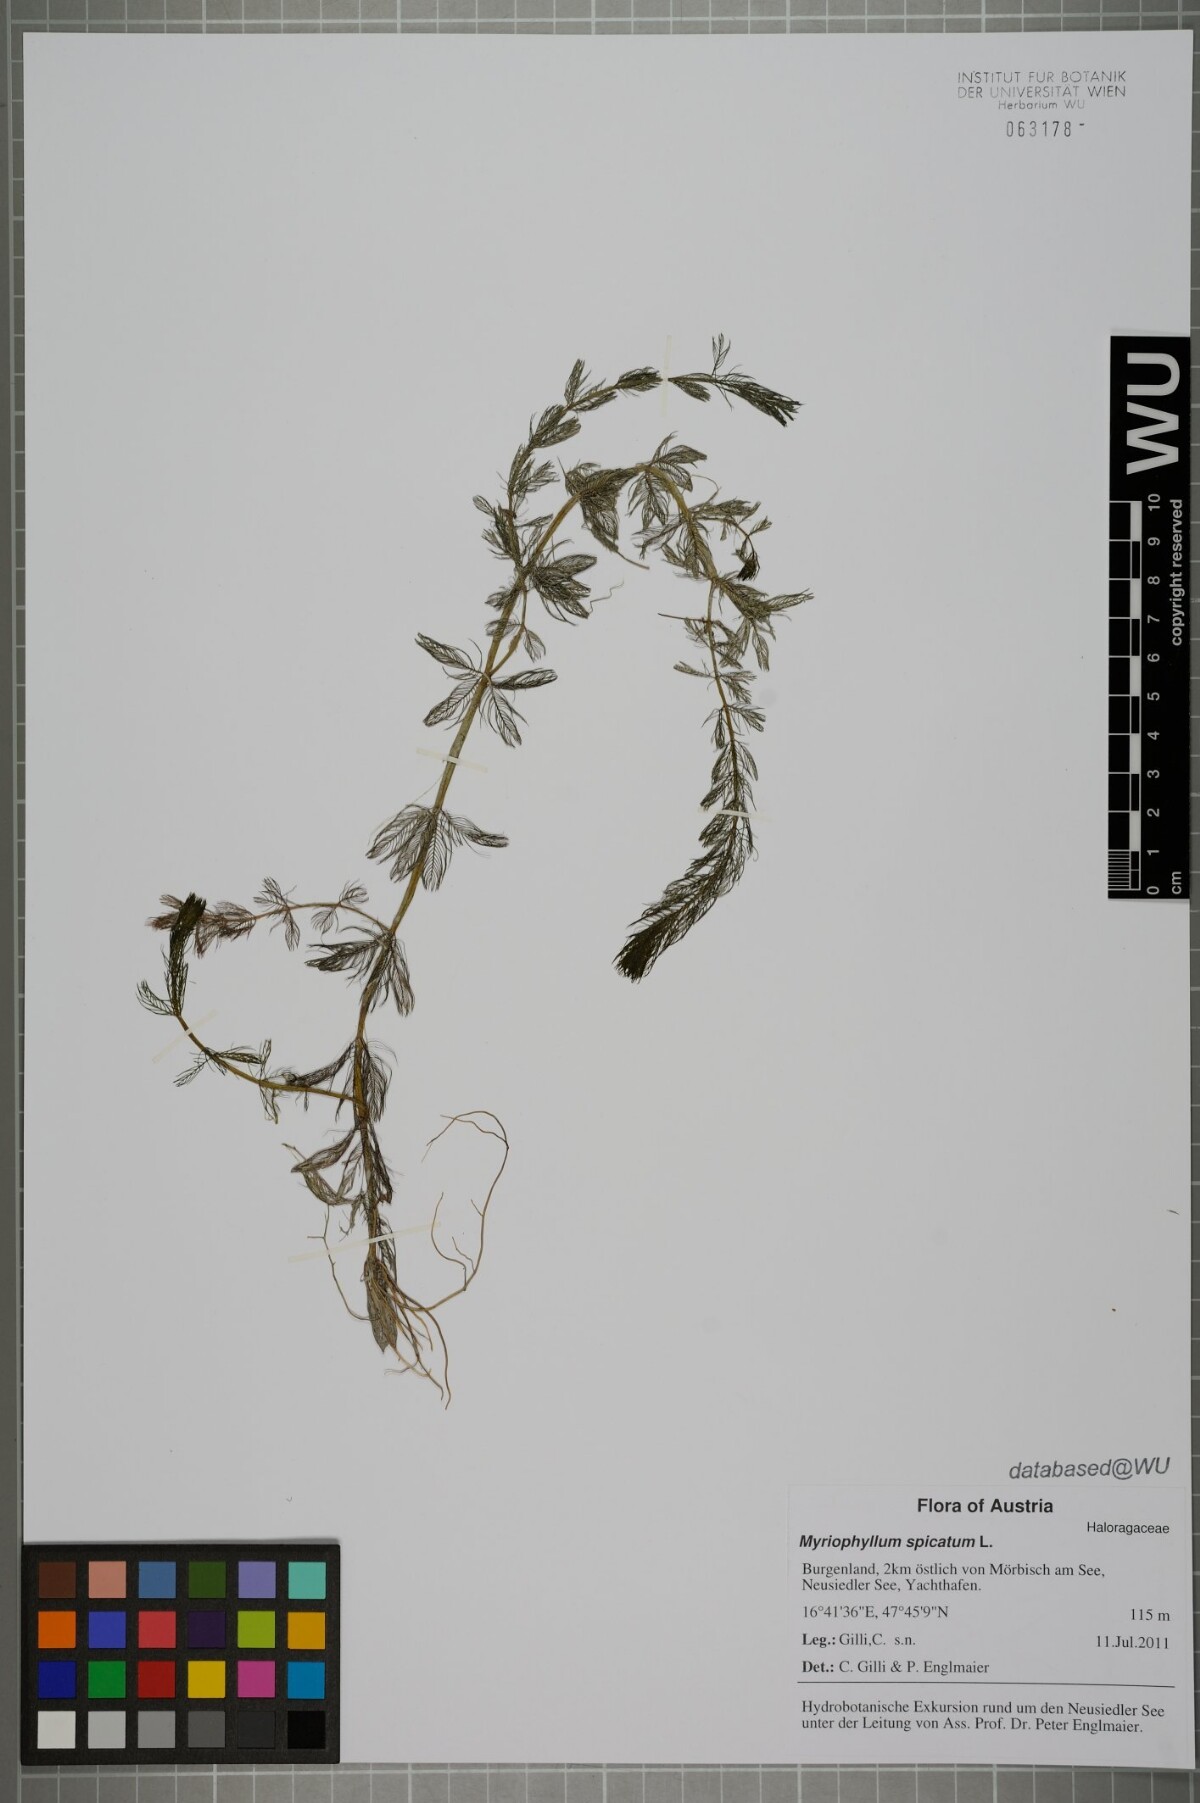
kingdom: Plantae
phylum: Tracheophyta
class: Magnoliopsida
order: Saxifragales
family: Haloragaceae
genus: Myriophyllum
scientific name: Myriophyllum spicatum
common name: Spiked water-milfoil
